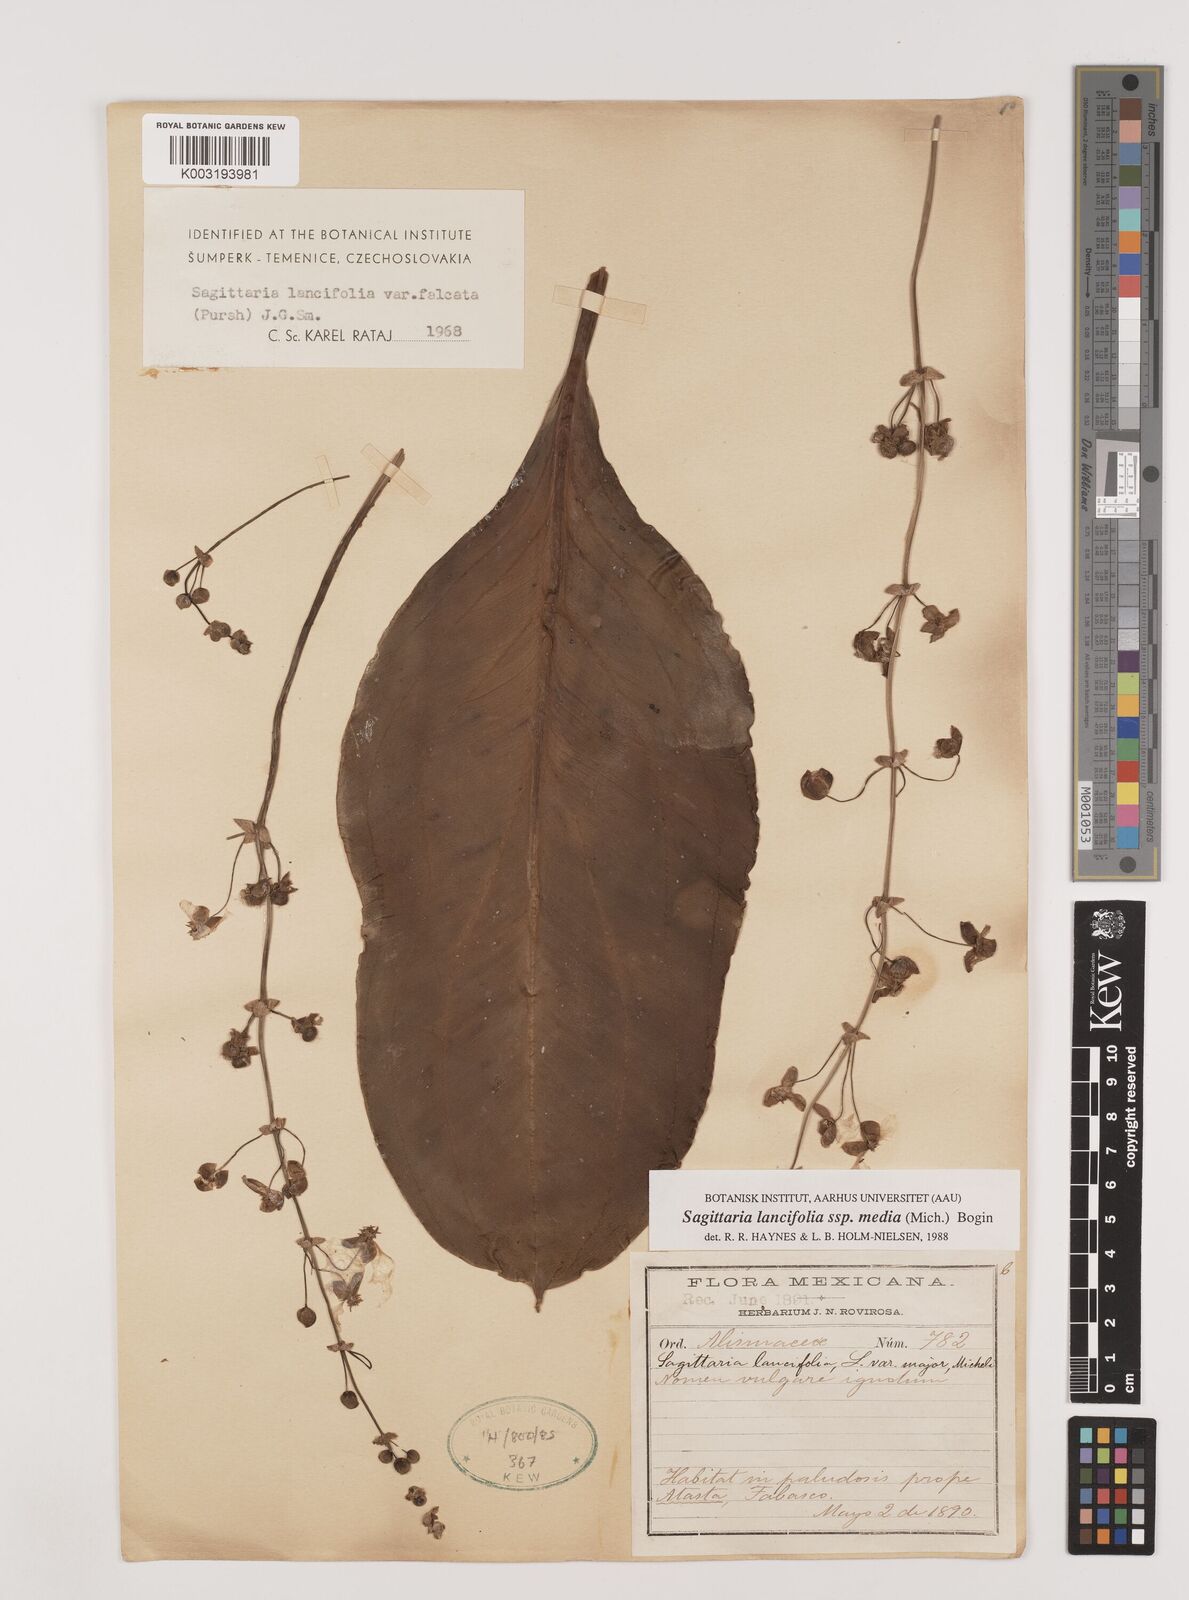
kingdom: Plantae
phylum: Tracheophyta
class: Liliopsida
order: Alismatales
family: Alismataceae
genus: Sagittaria
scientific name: Sagittaria lancifolia
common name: Lance-leaf arrowhead
